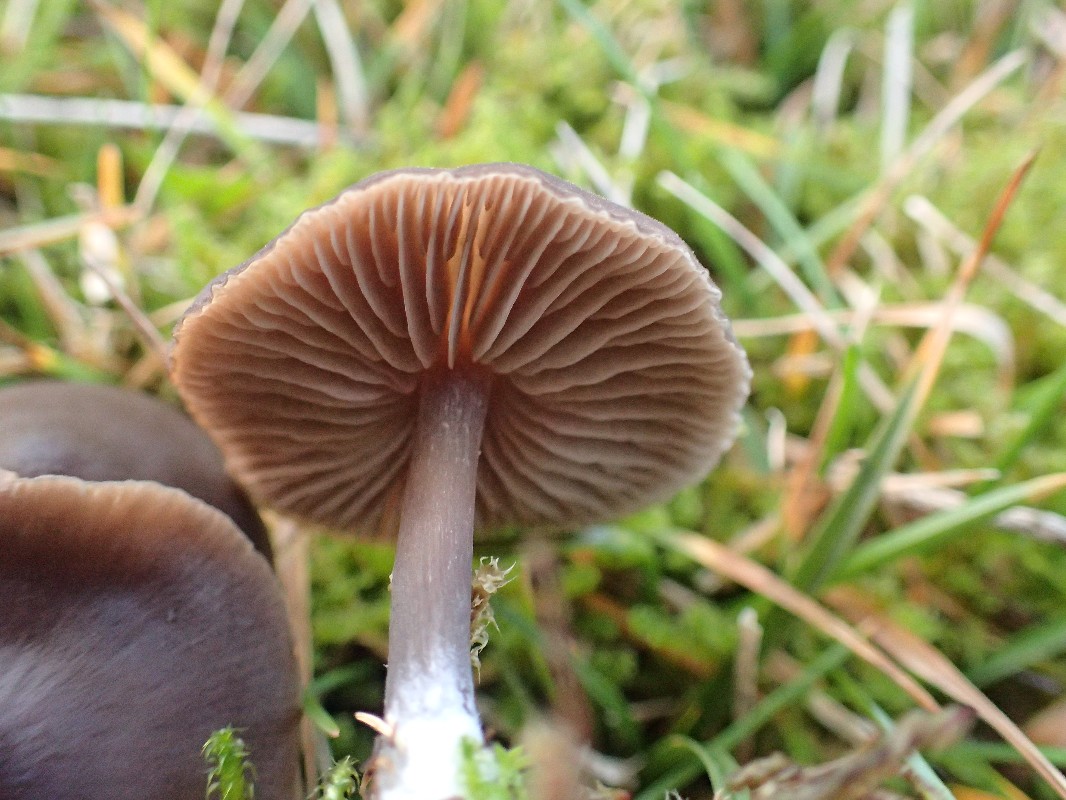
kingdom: Fungi
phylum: Basidiomycota
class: Agaricomycetes
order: Agaricales
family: Entolomataceae
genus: Entoloma
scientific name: Entoloma
